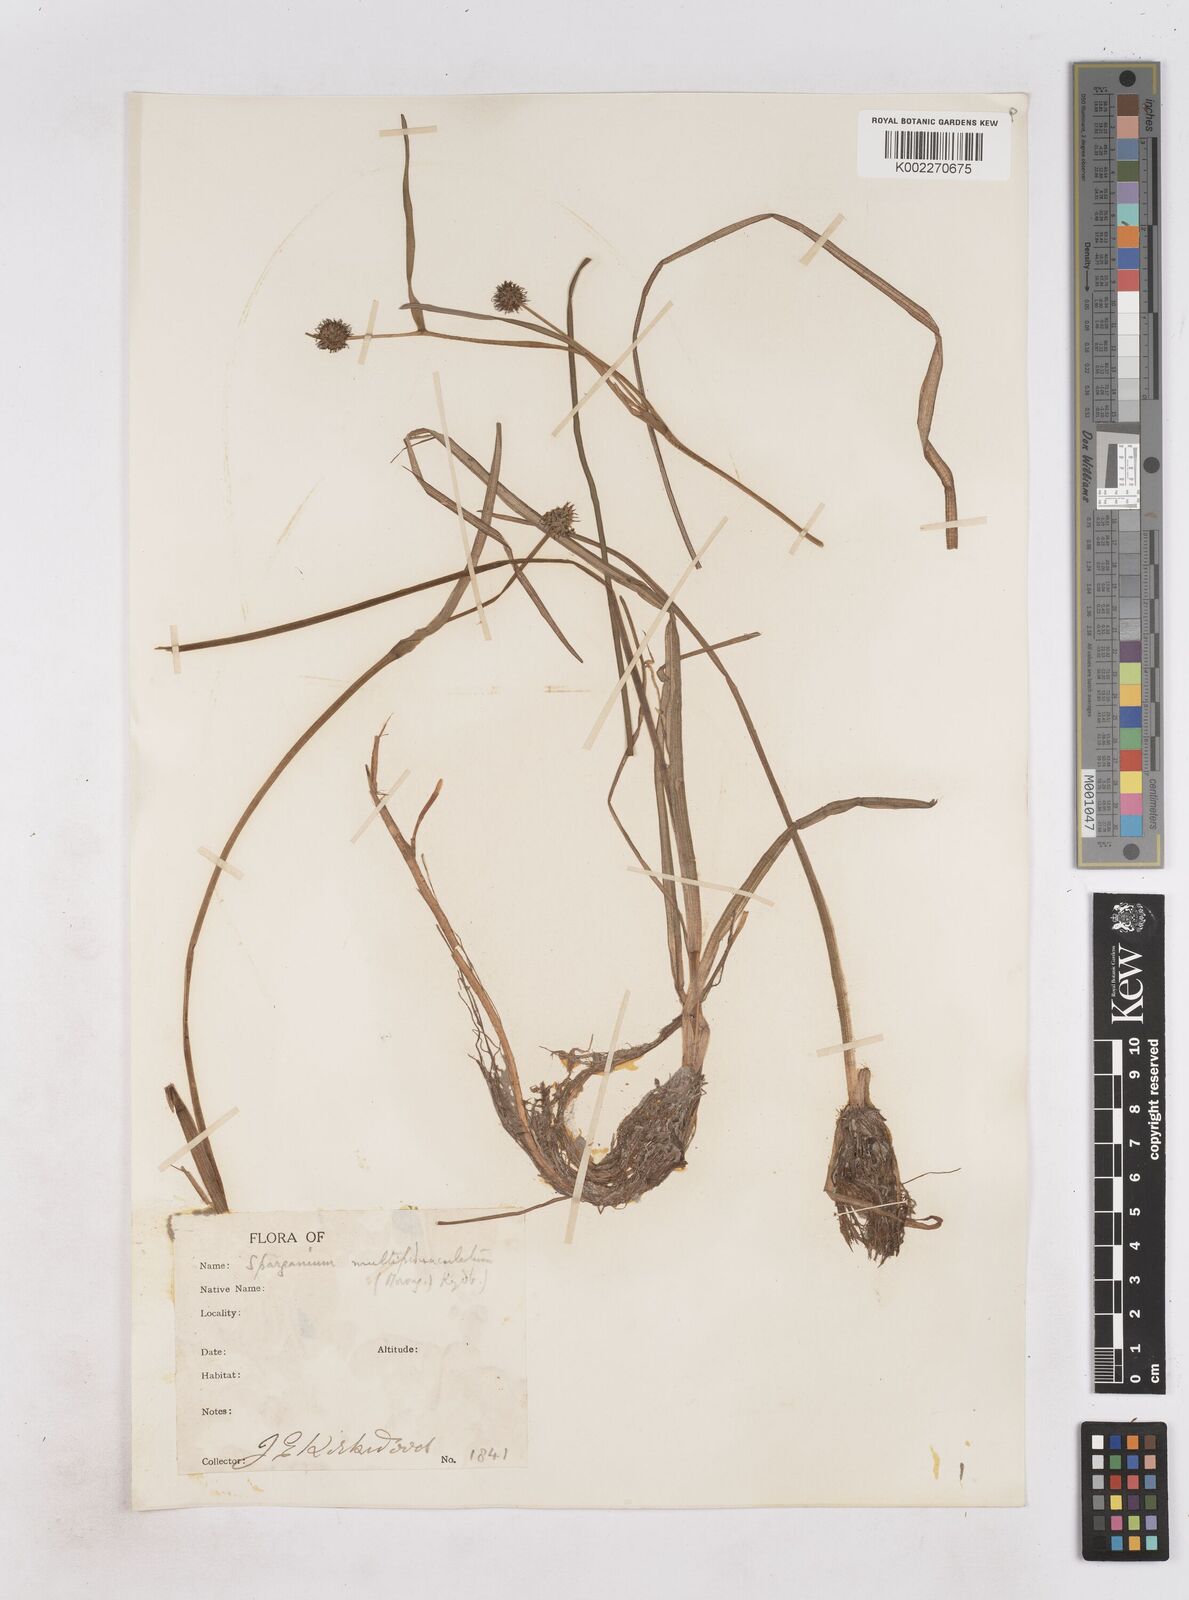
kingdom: Plantae
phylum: Tracheophyta
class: Liliopsida
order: Poales
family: Typhaceae
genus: Sparganium
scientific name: Sparganium emersum
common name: Unbranched bur-reed
